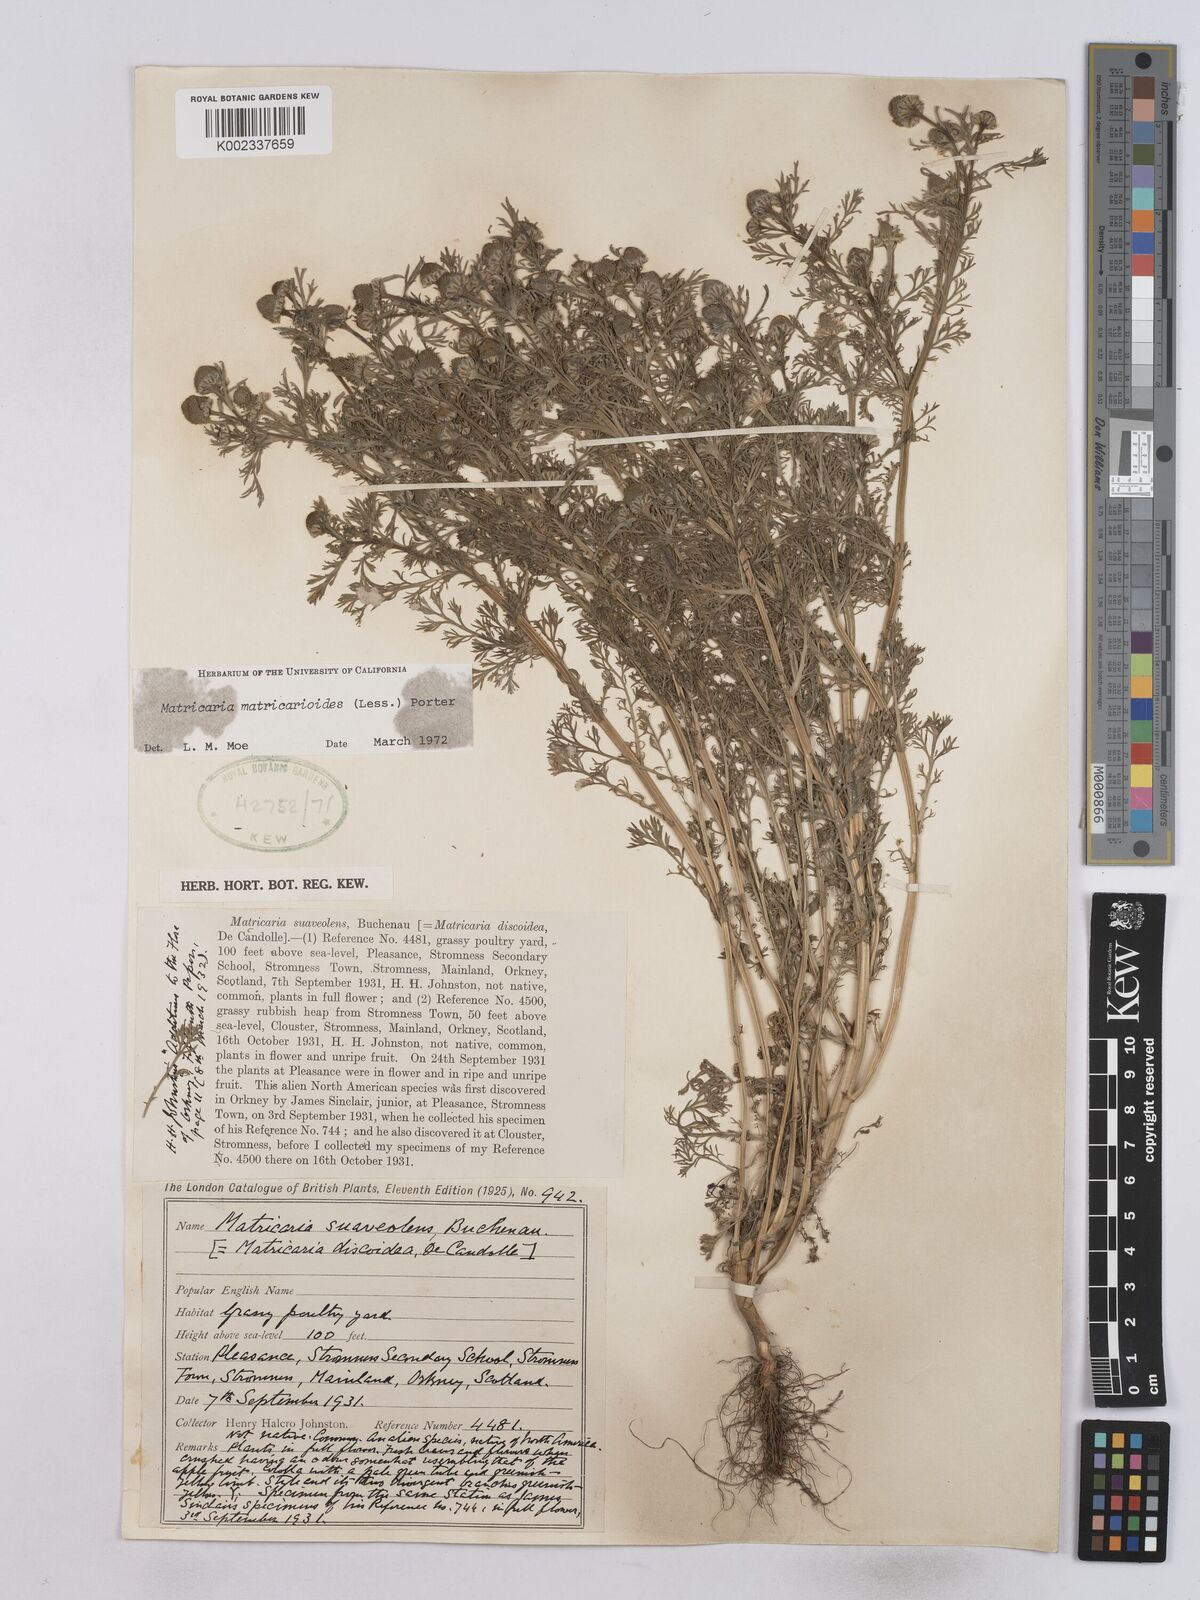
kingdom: Plantae
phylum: Tracheophyta
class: Magnoliopsida
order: Asterales
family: Asteraceae
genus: Matricaria
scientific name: Matricaria discoidea
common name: Disc mayweed
